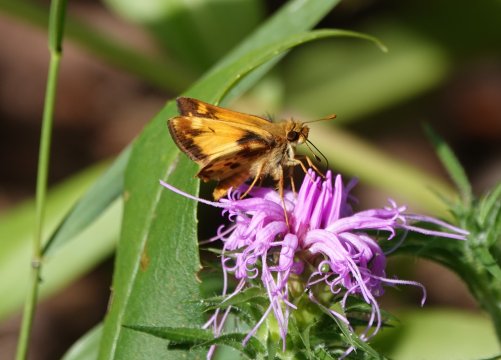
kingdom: Animalia
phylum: Arthropoda
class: Insecta
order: Lepidoptera
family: Hesperiidae
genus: Lon
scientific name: Lon zabulon
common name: Zabulon Skipper
